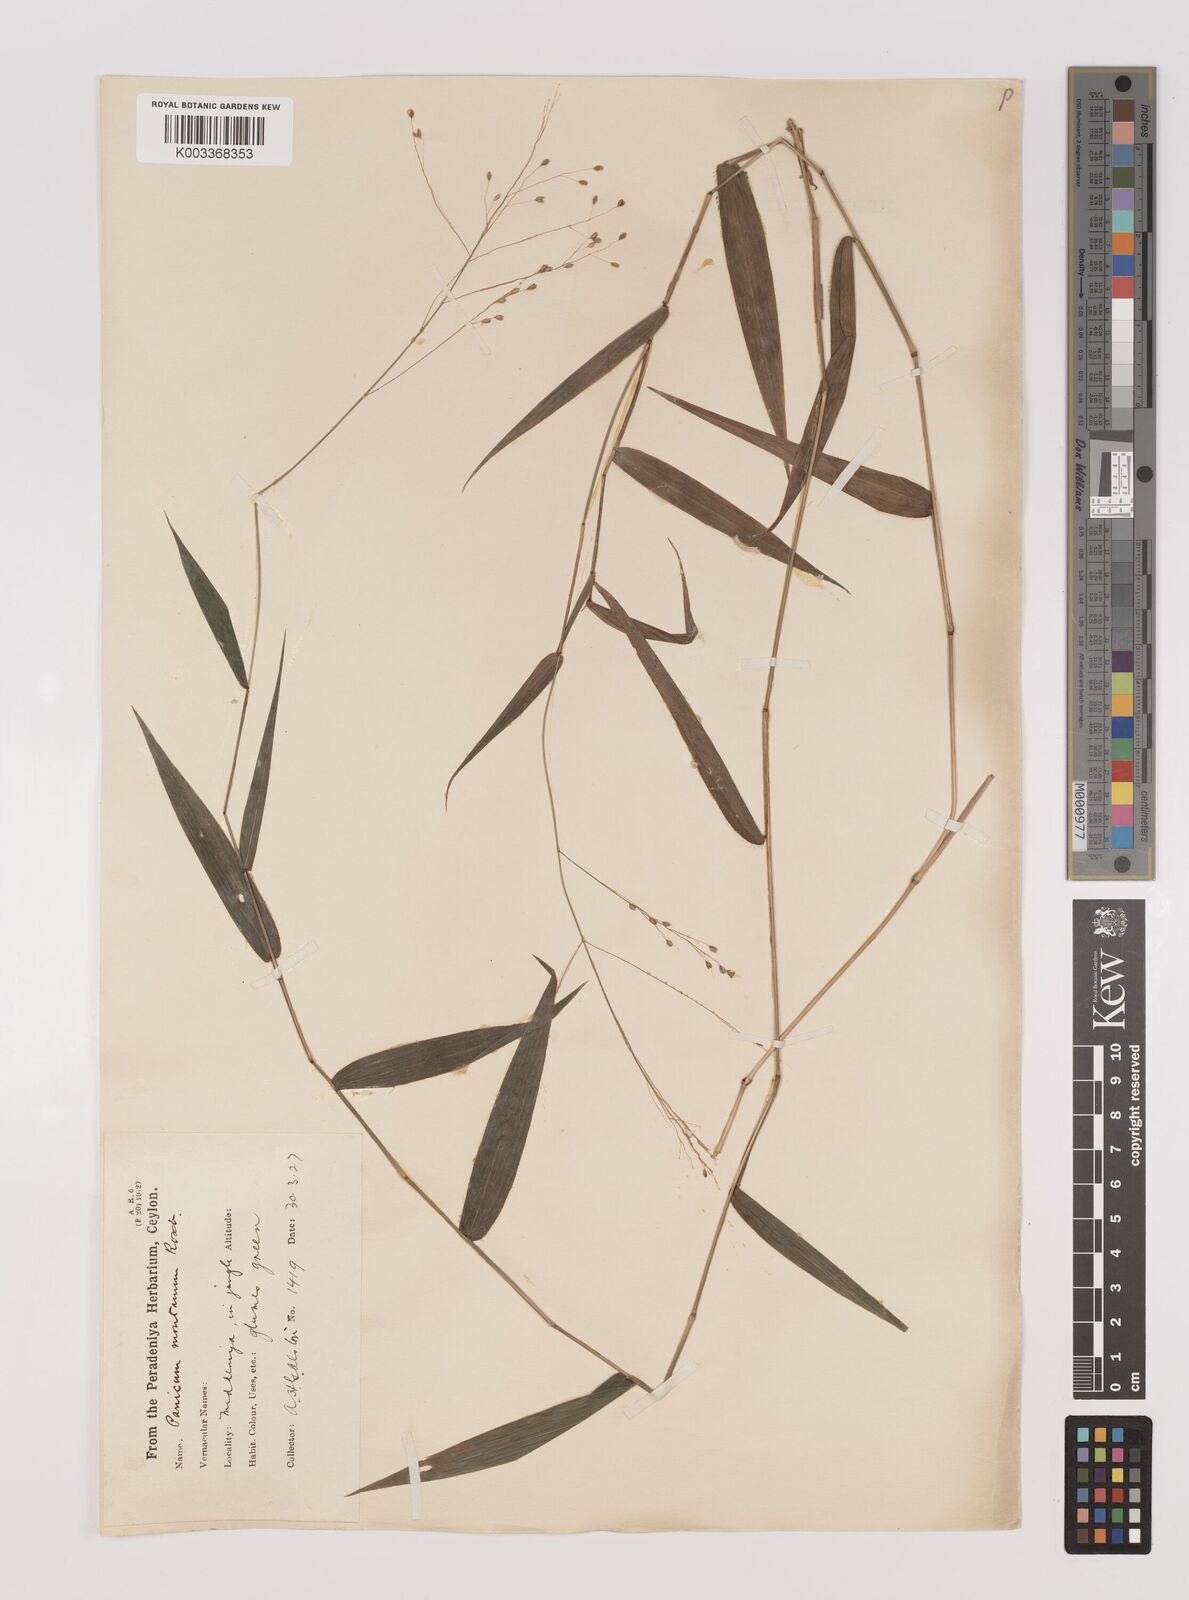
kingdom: Plantae
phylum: Tracheophyta
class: Liliopsida
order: Poales
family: Poaceae
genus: Panicum
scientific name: Panicum notatum
